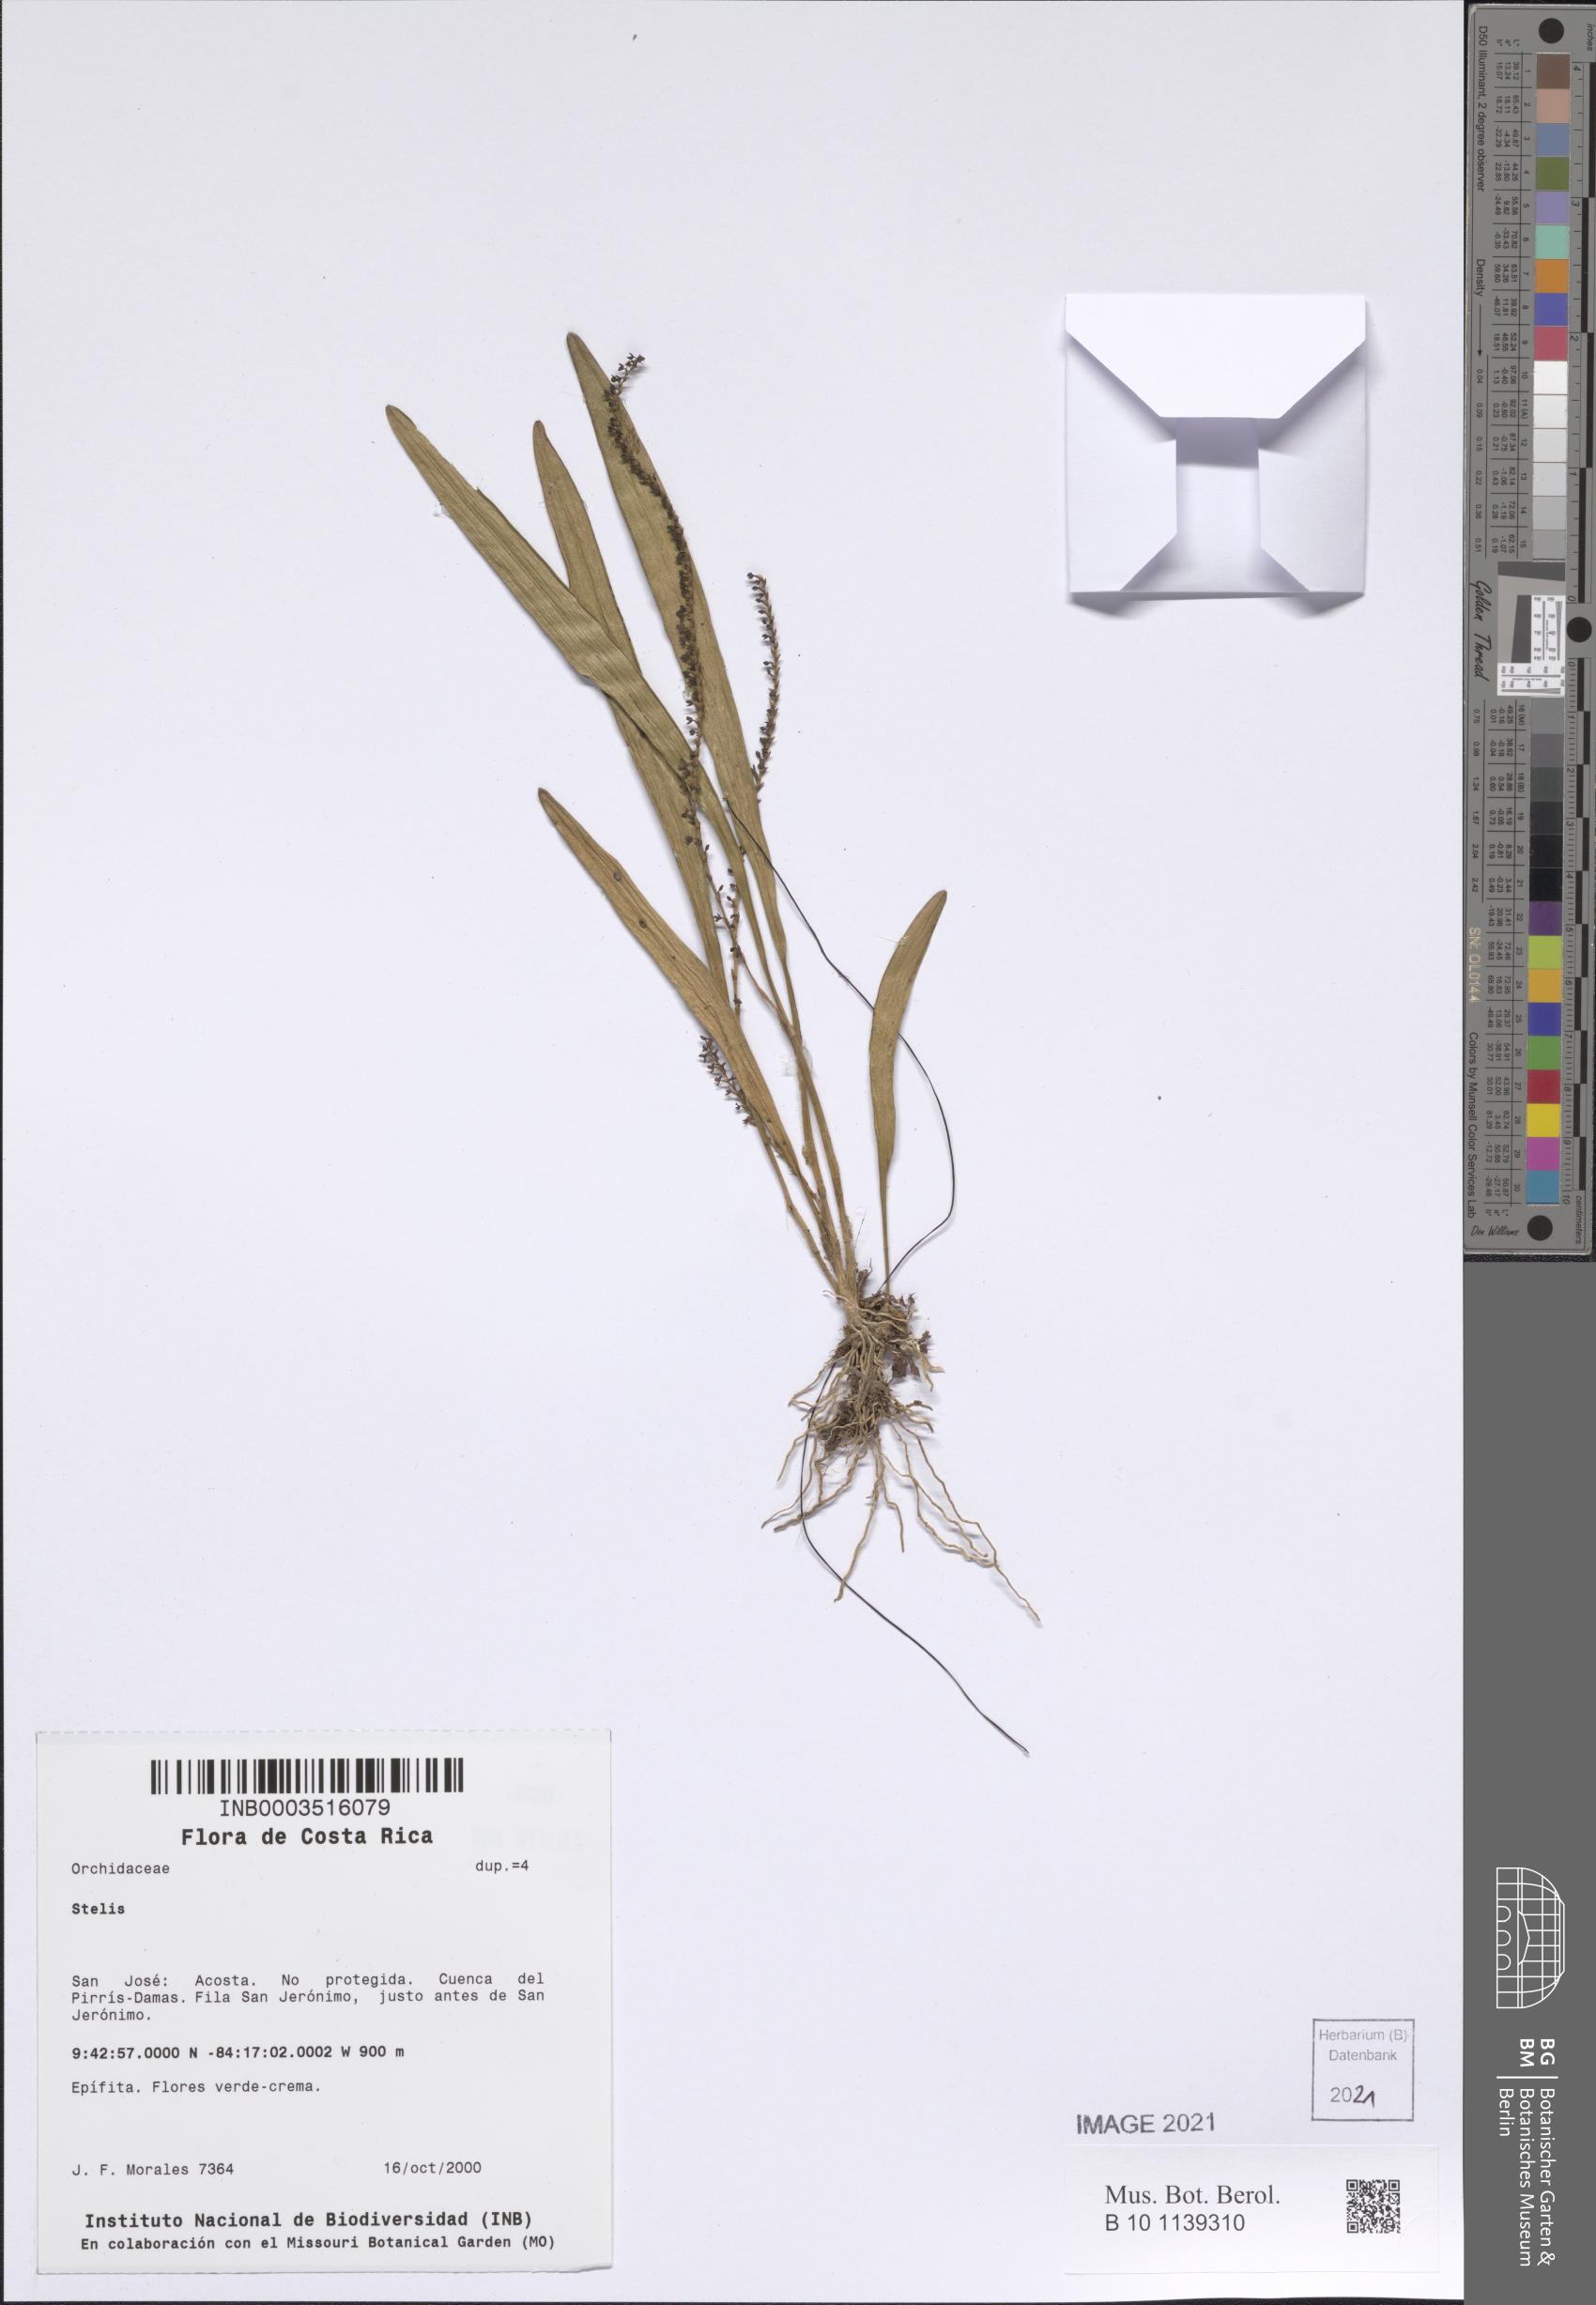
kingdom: Plantae
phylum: Tracheophyta
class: Liliopsida
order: Asparagales
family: Orchidaceae
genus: Stelis
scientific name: Stelis
